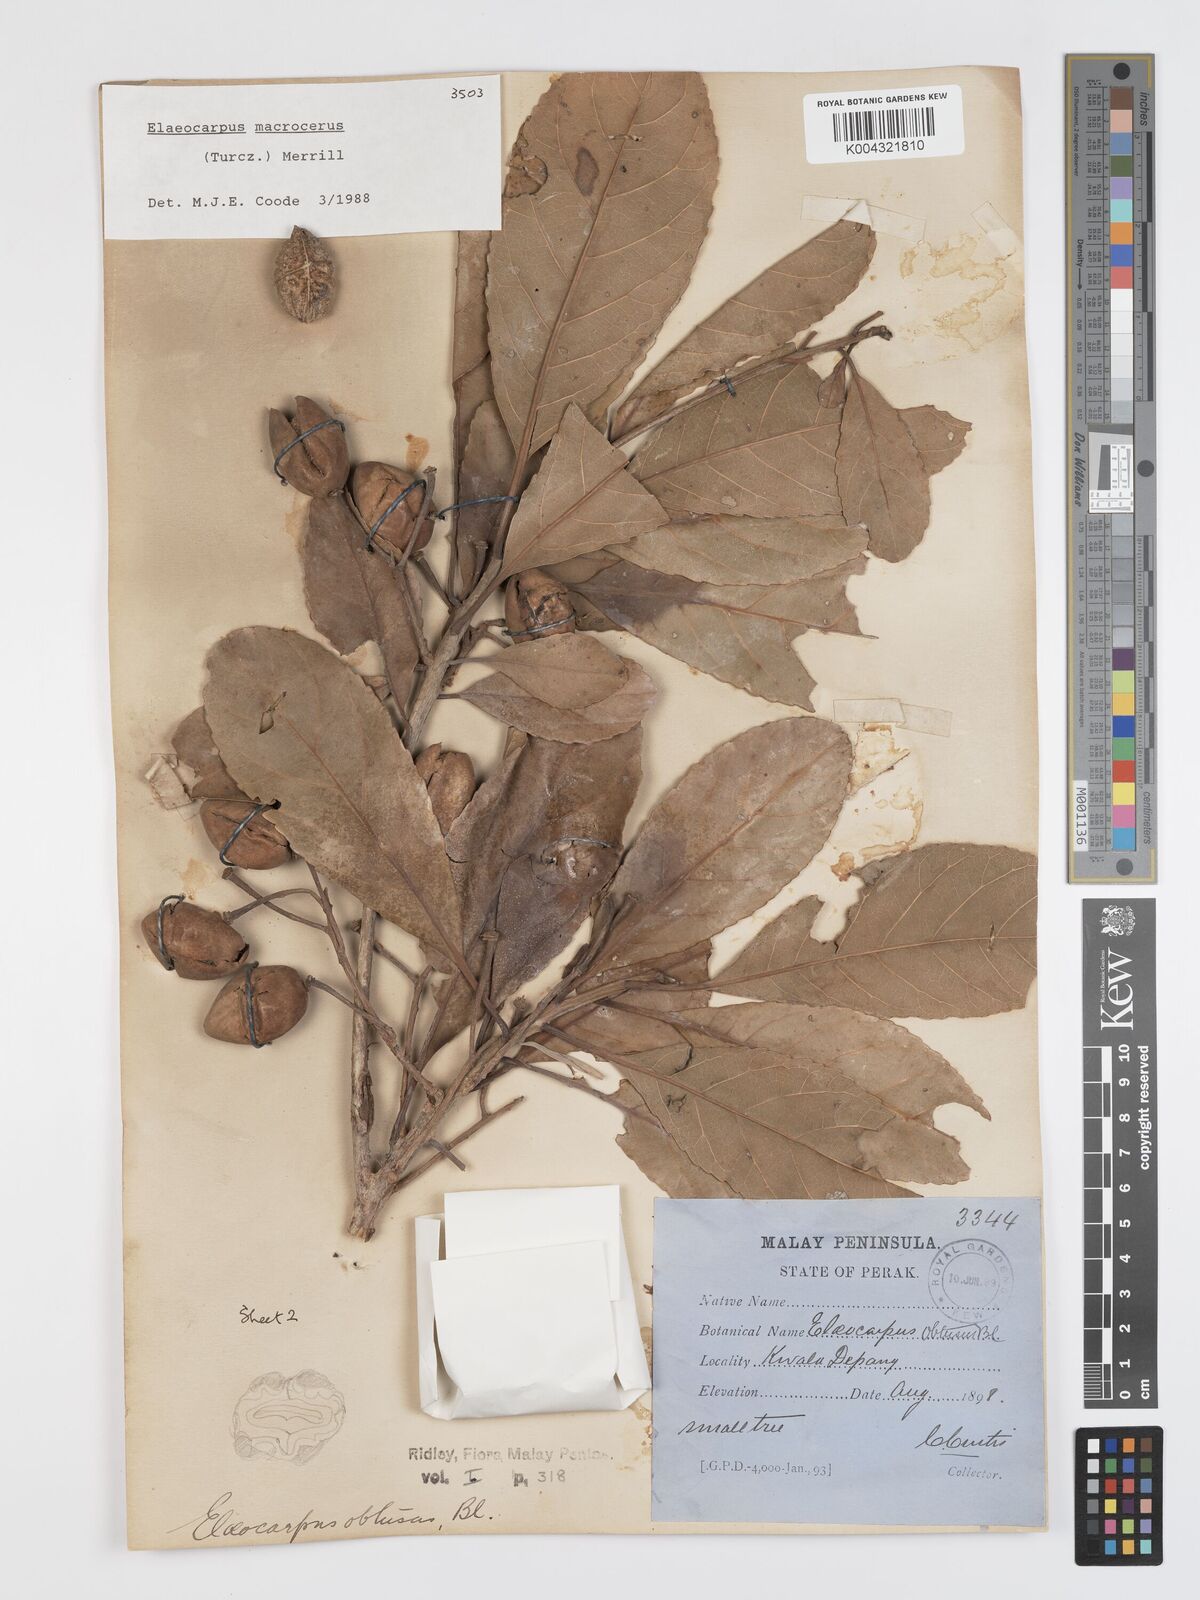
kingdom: Plantae
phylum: Tracheophyta
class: Magnoliopsida
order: Oxalidales
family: Elaeocarpaceae
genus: Elaeocarpus
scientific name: Elaeocarpus
